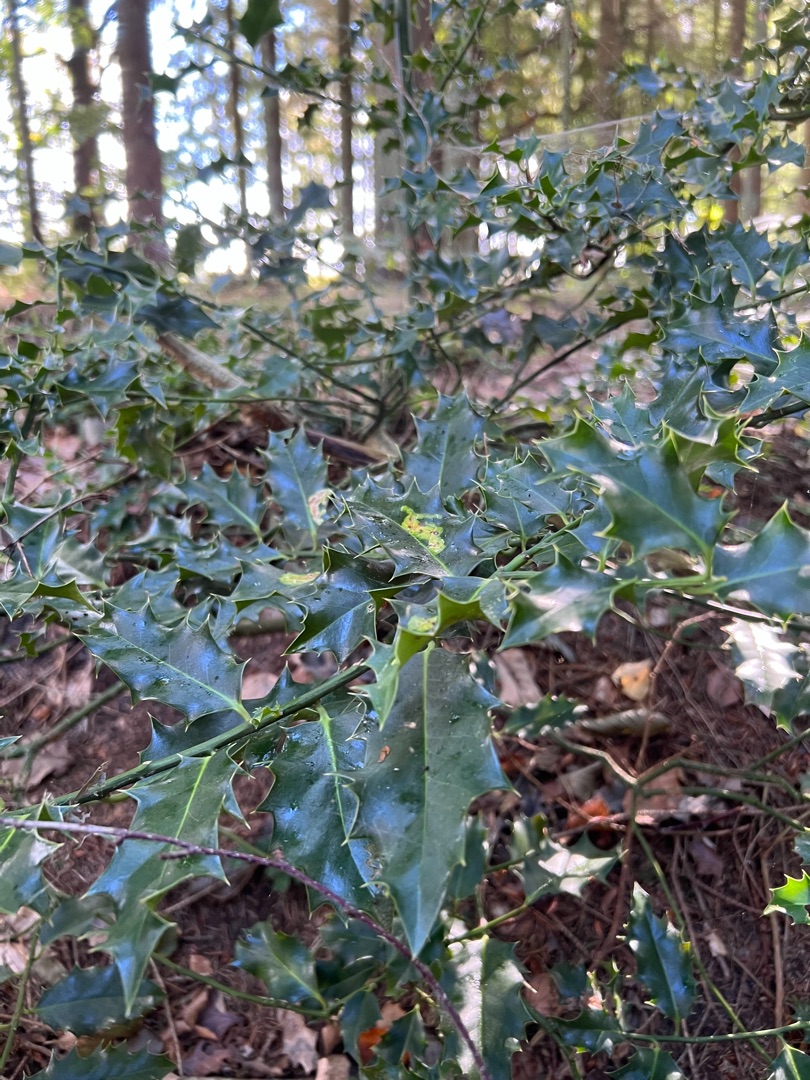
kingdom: Plantae
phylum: Tracheophyta
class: Magnoliopsida
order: Aquifoliales
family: Aquifoliaceae
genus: Ilex
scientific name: Ilex aquifolium
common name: Kristtorn
